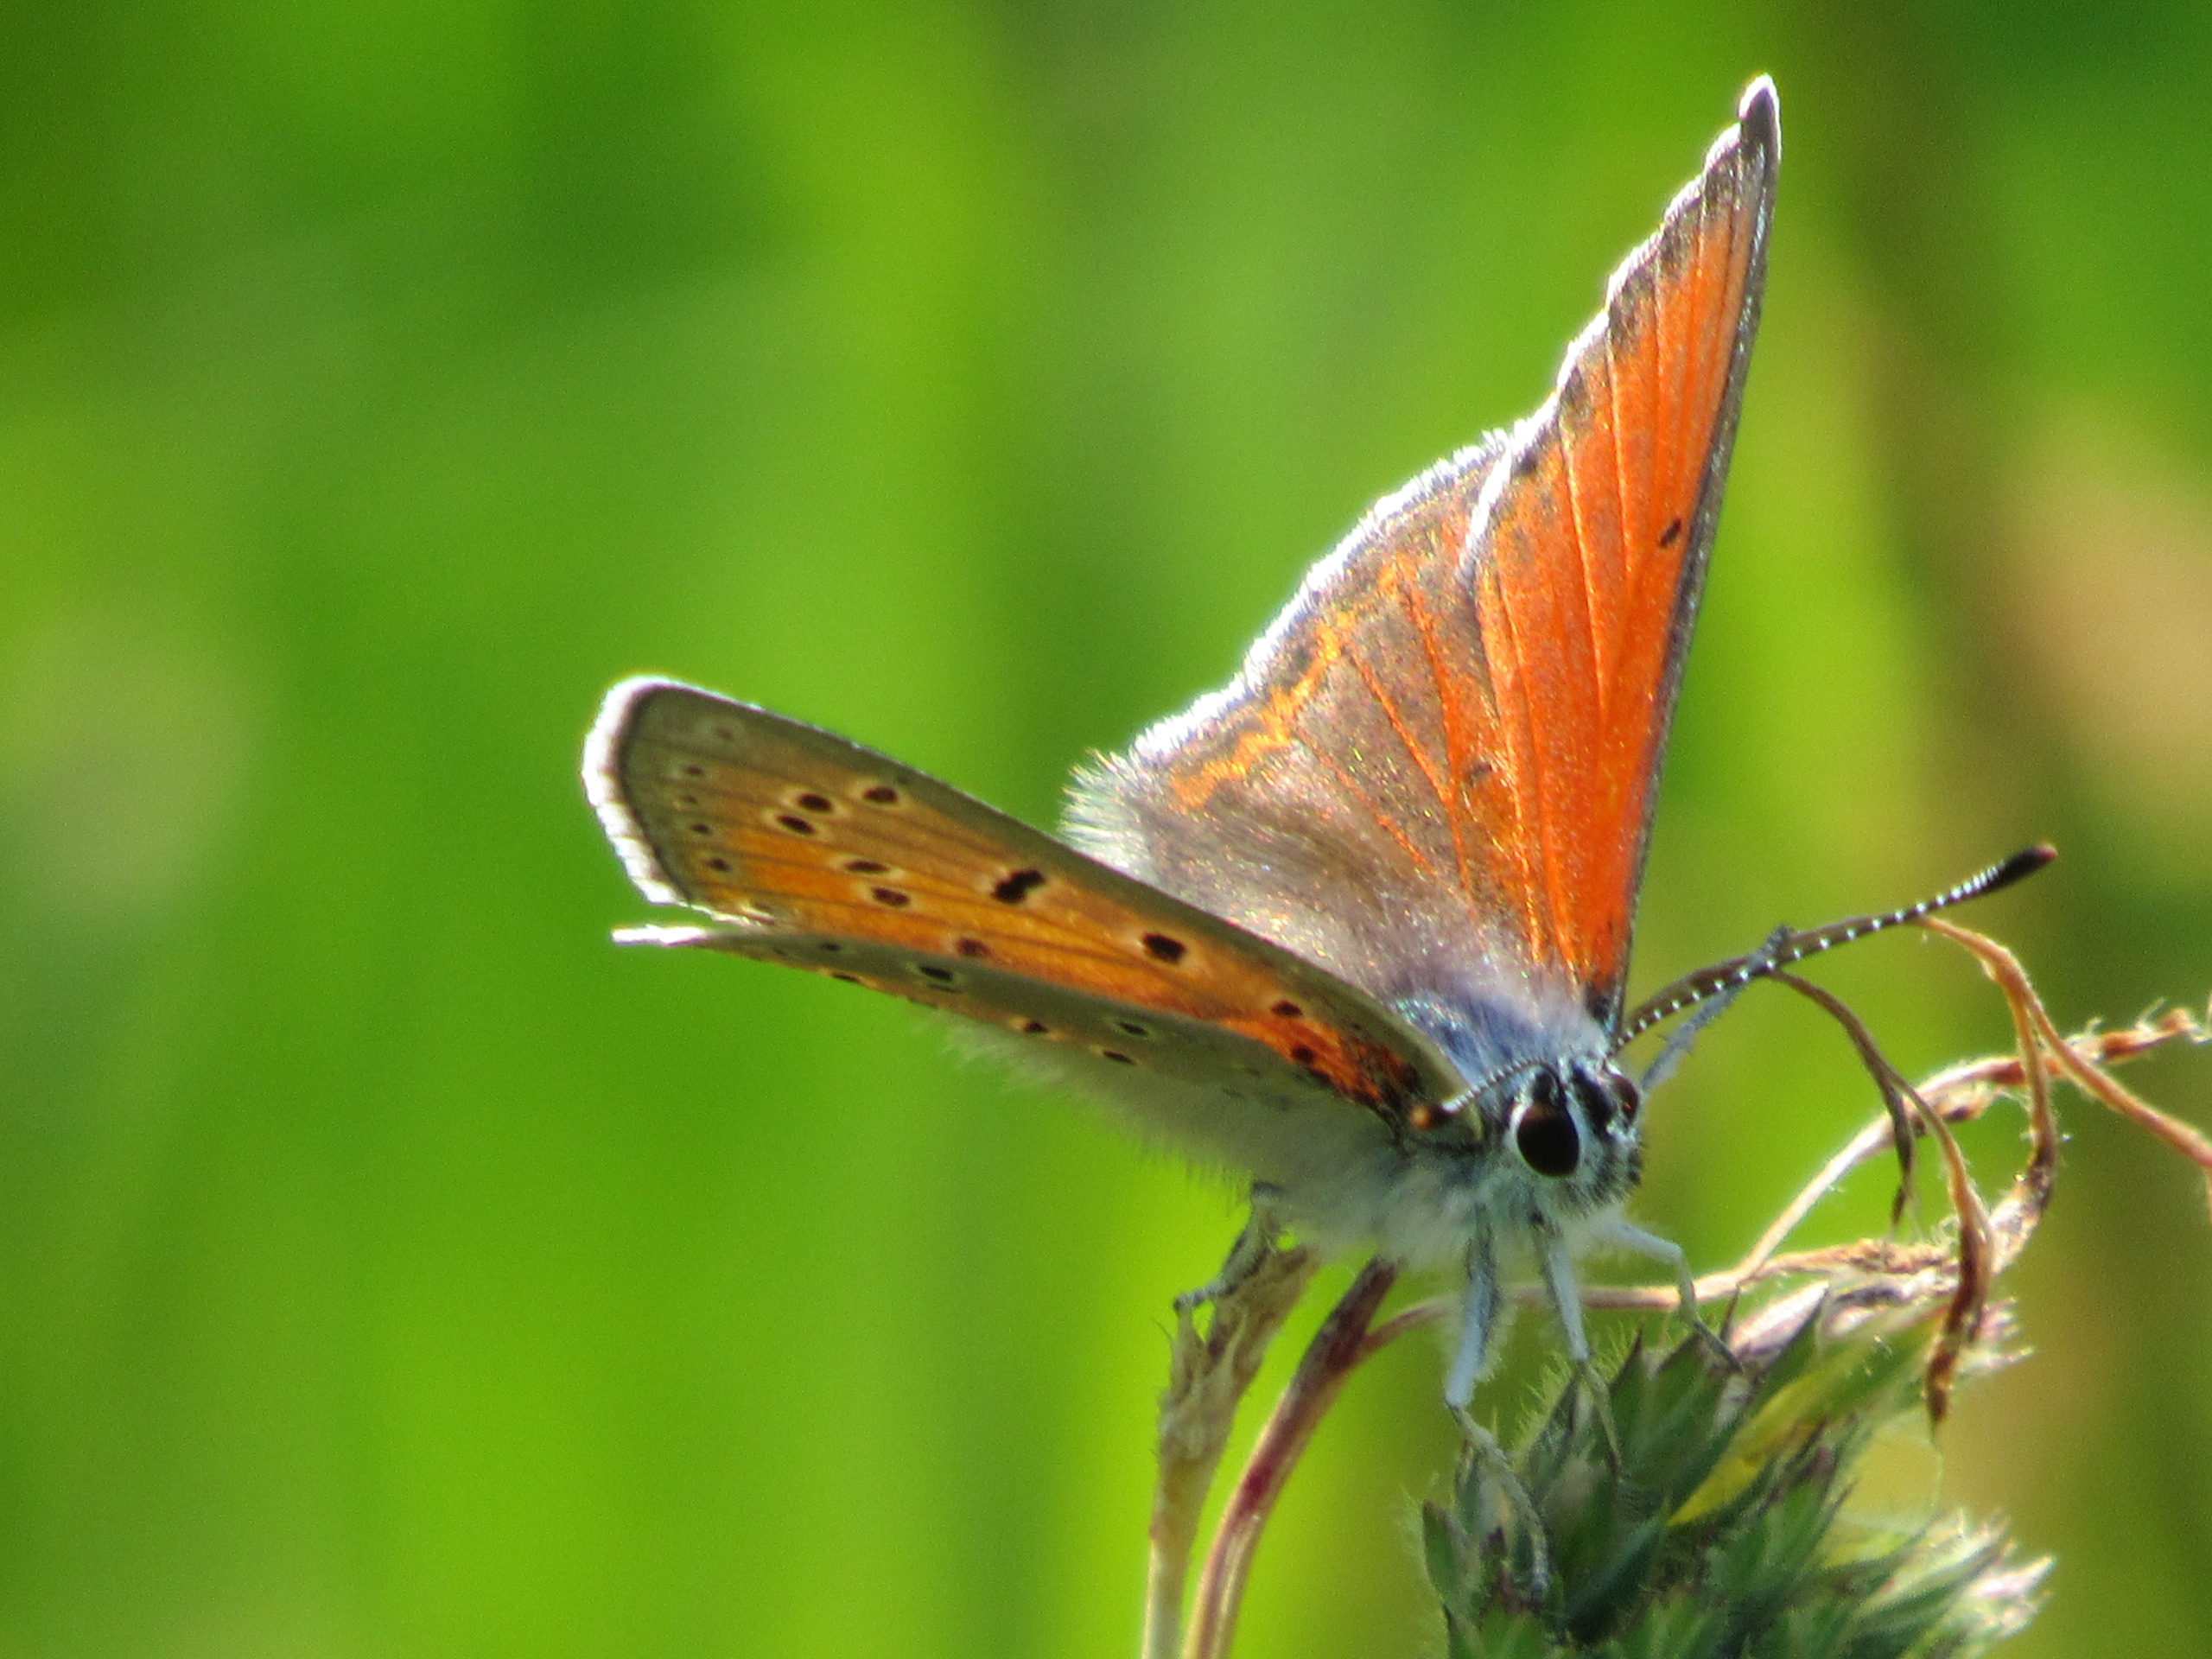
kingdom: Animalia
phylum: Arthropoda
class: Insecta
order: Lepidoptera
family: Lycaenidae
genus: Palaeochrysophanus
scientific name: Palaeochrysophanus hippothoe
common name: Violetrandet ildfugl
